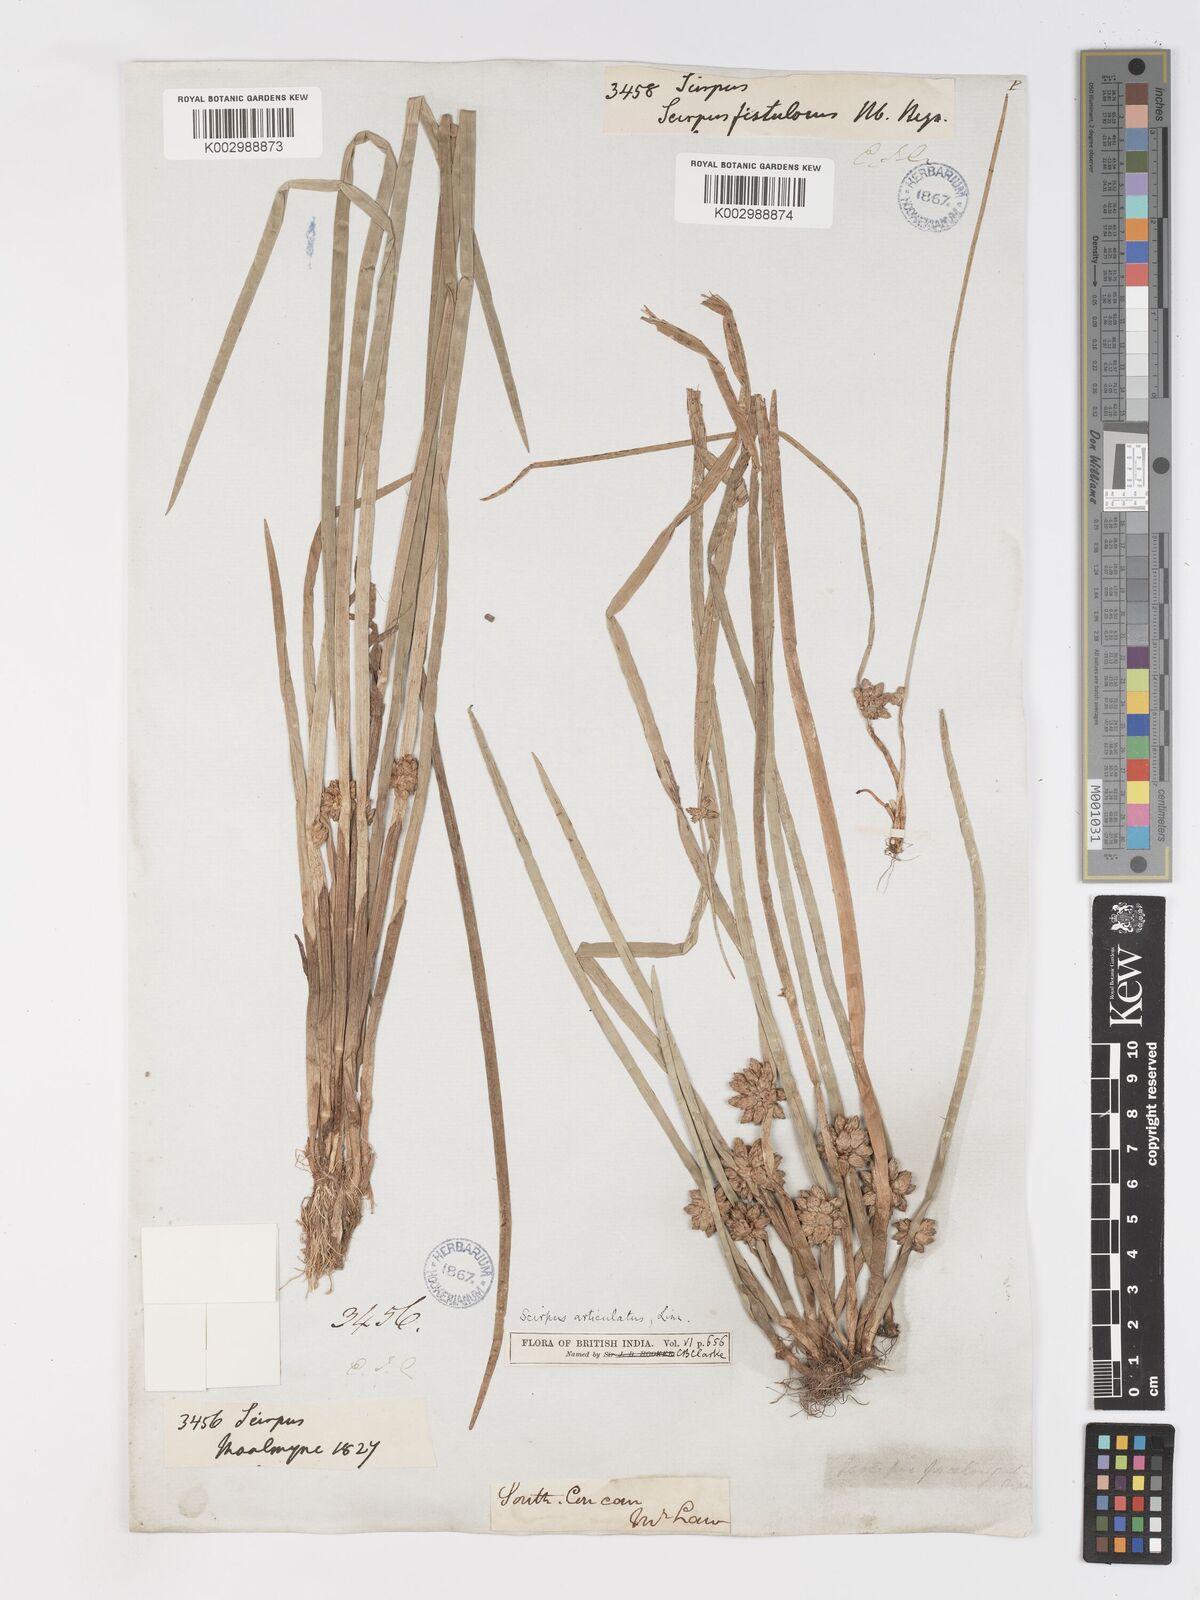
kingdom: Plantae
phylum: Tracheophyta
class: Liliopsida
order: Poales
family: Cyperaceae
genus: Schoenoplectiella
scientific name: Schoenoplectiella praelongata
